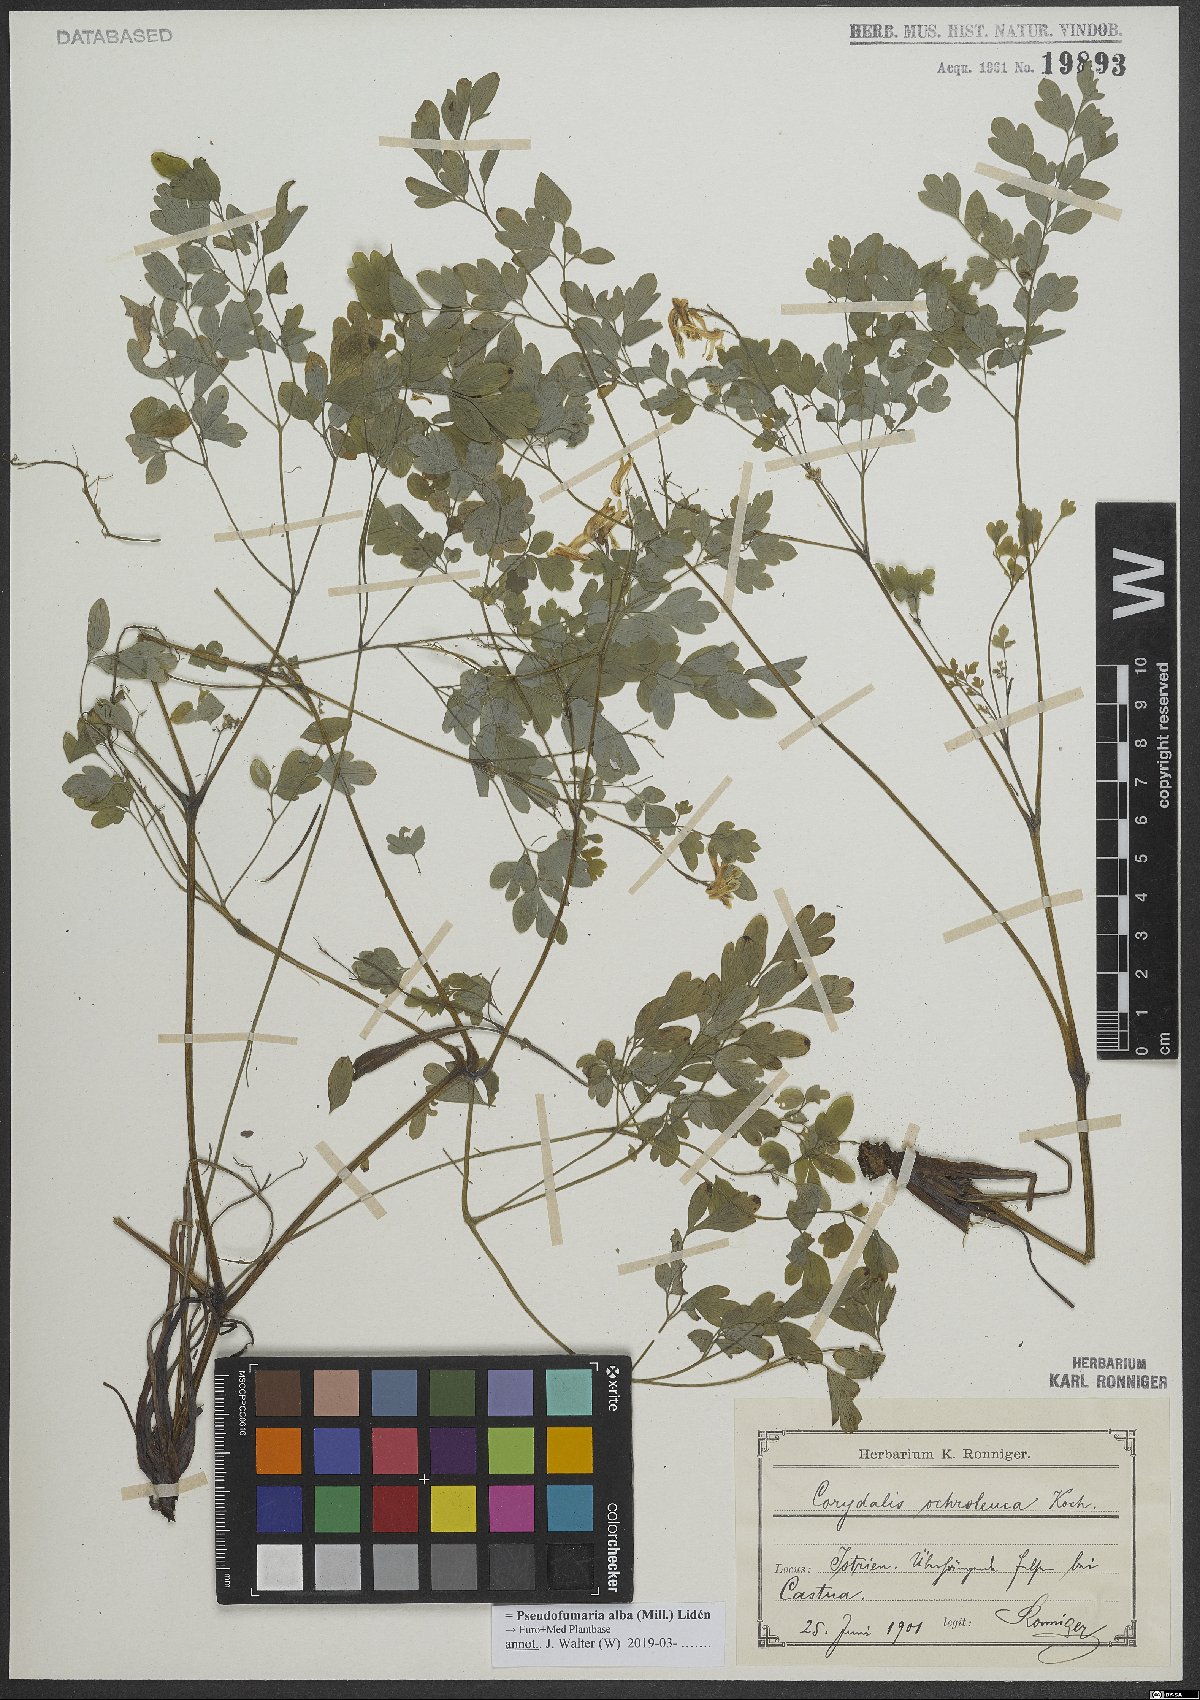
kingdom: Plantae
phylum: Tracheophyta
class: Magnoliopsida
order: Ranunculales
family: Papaveraceae
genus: Pseudofumaria
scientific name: Pseudofumaria alba
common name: Pale corydalis
